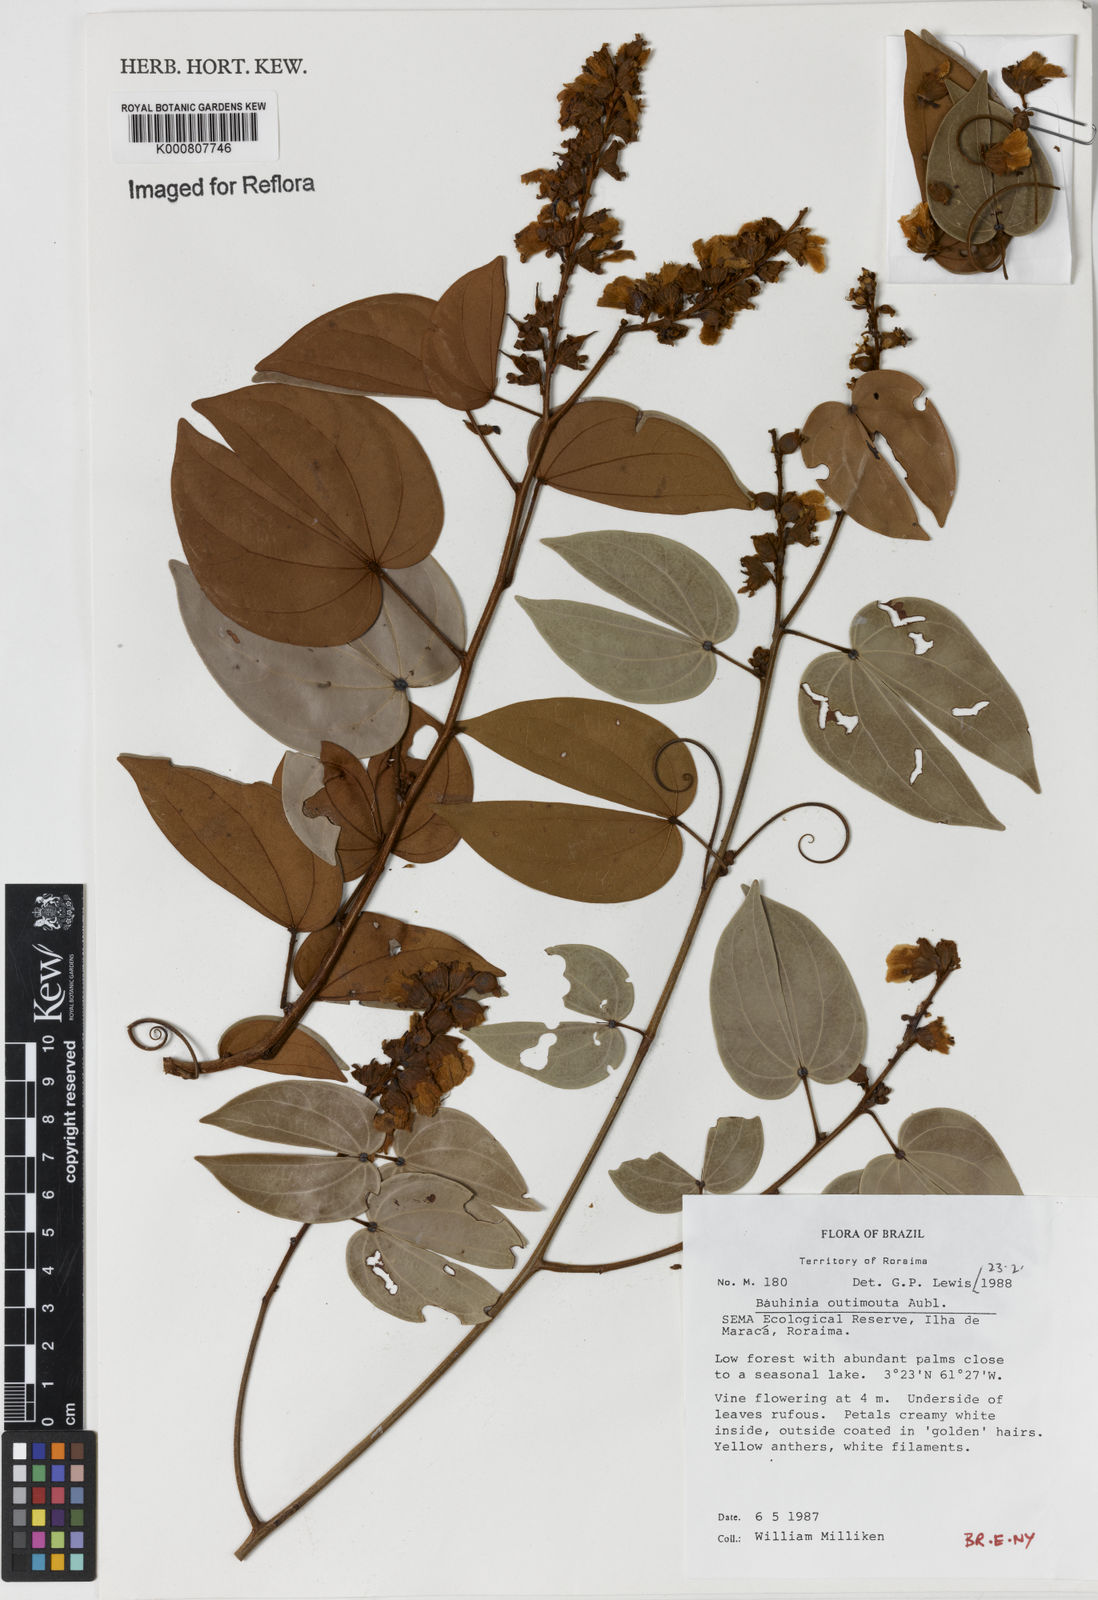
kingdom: Plantae
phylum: Tracheophyta
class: Magnoliopsida
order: Fabales
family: Fabaceae
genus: Schnella
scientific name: Schnella outimouta
